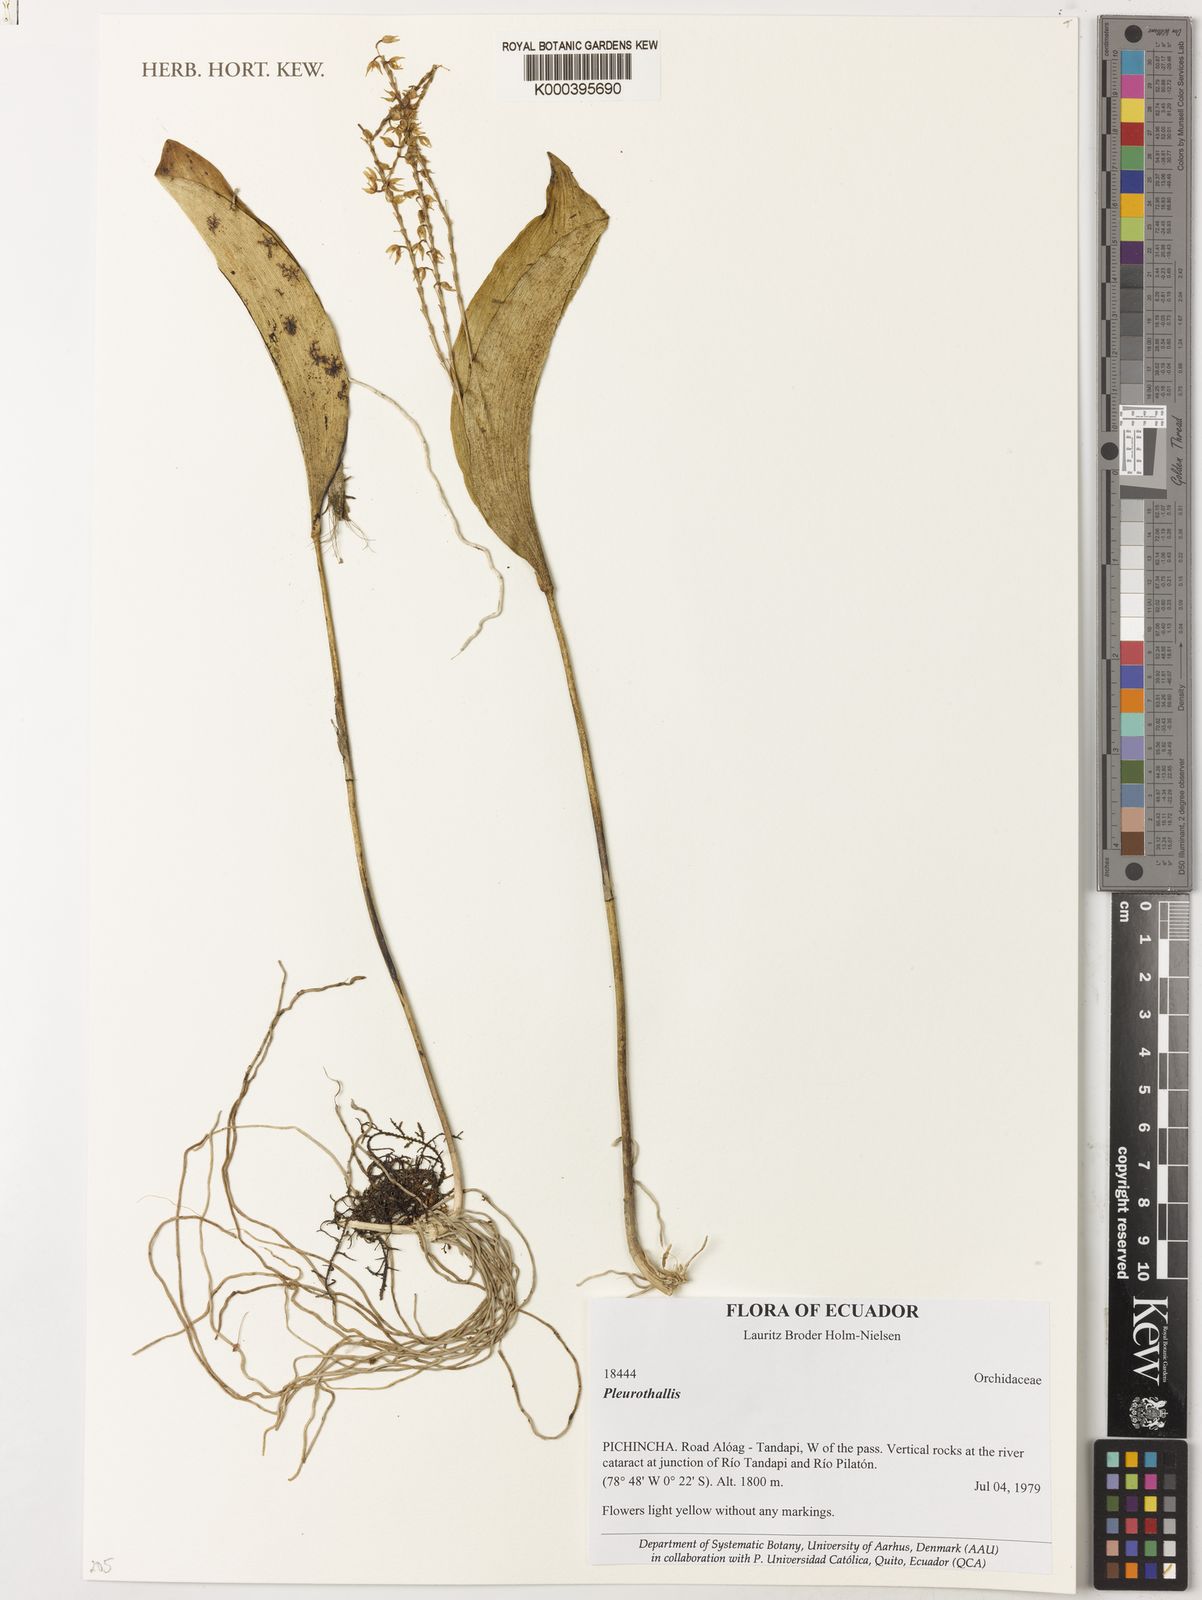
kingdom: Plantae
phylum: Tracheophyta
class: Liliopsida
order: Asparagales
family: Orchidaceae
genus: Pleurothallis
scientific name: Pleurothallis
